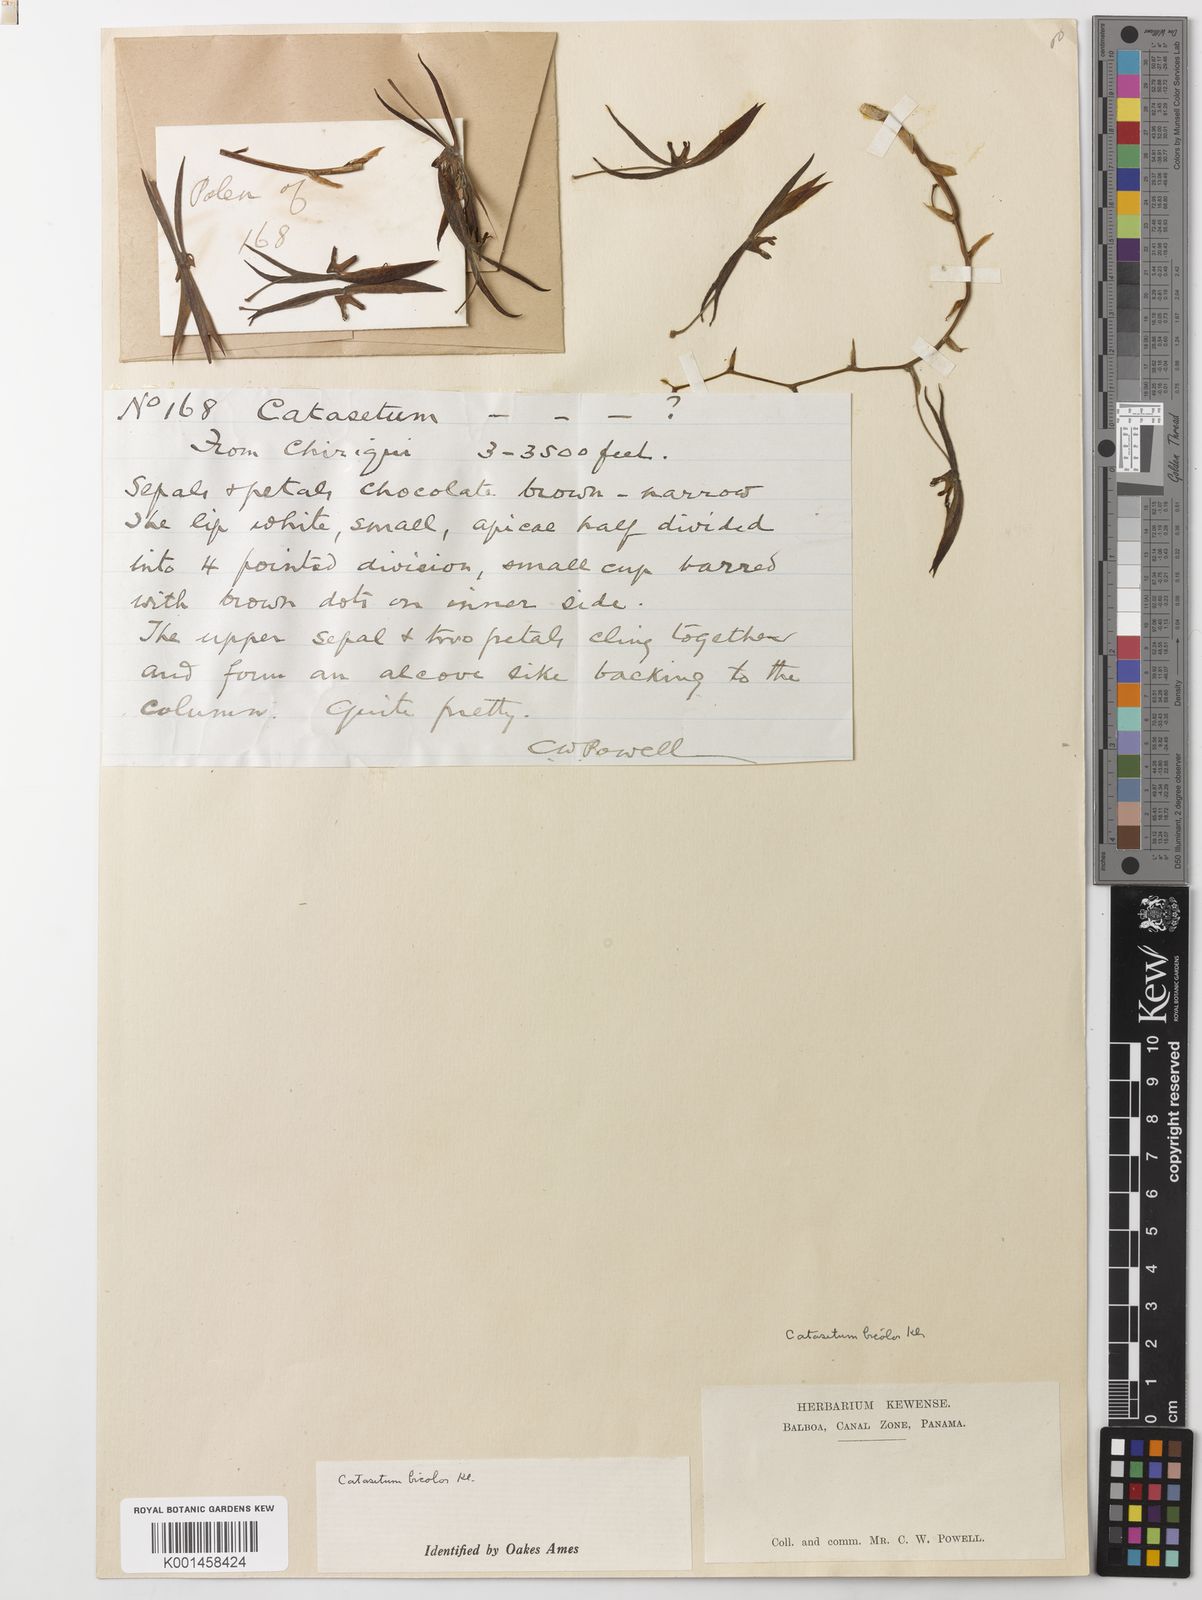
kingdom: Plantae
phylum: Tracheophyta
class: Liliopsida
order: Asparagales
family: Orchidaceae
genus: Catasetum
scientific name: Catasetum bicolor
